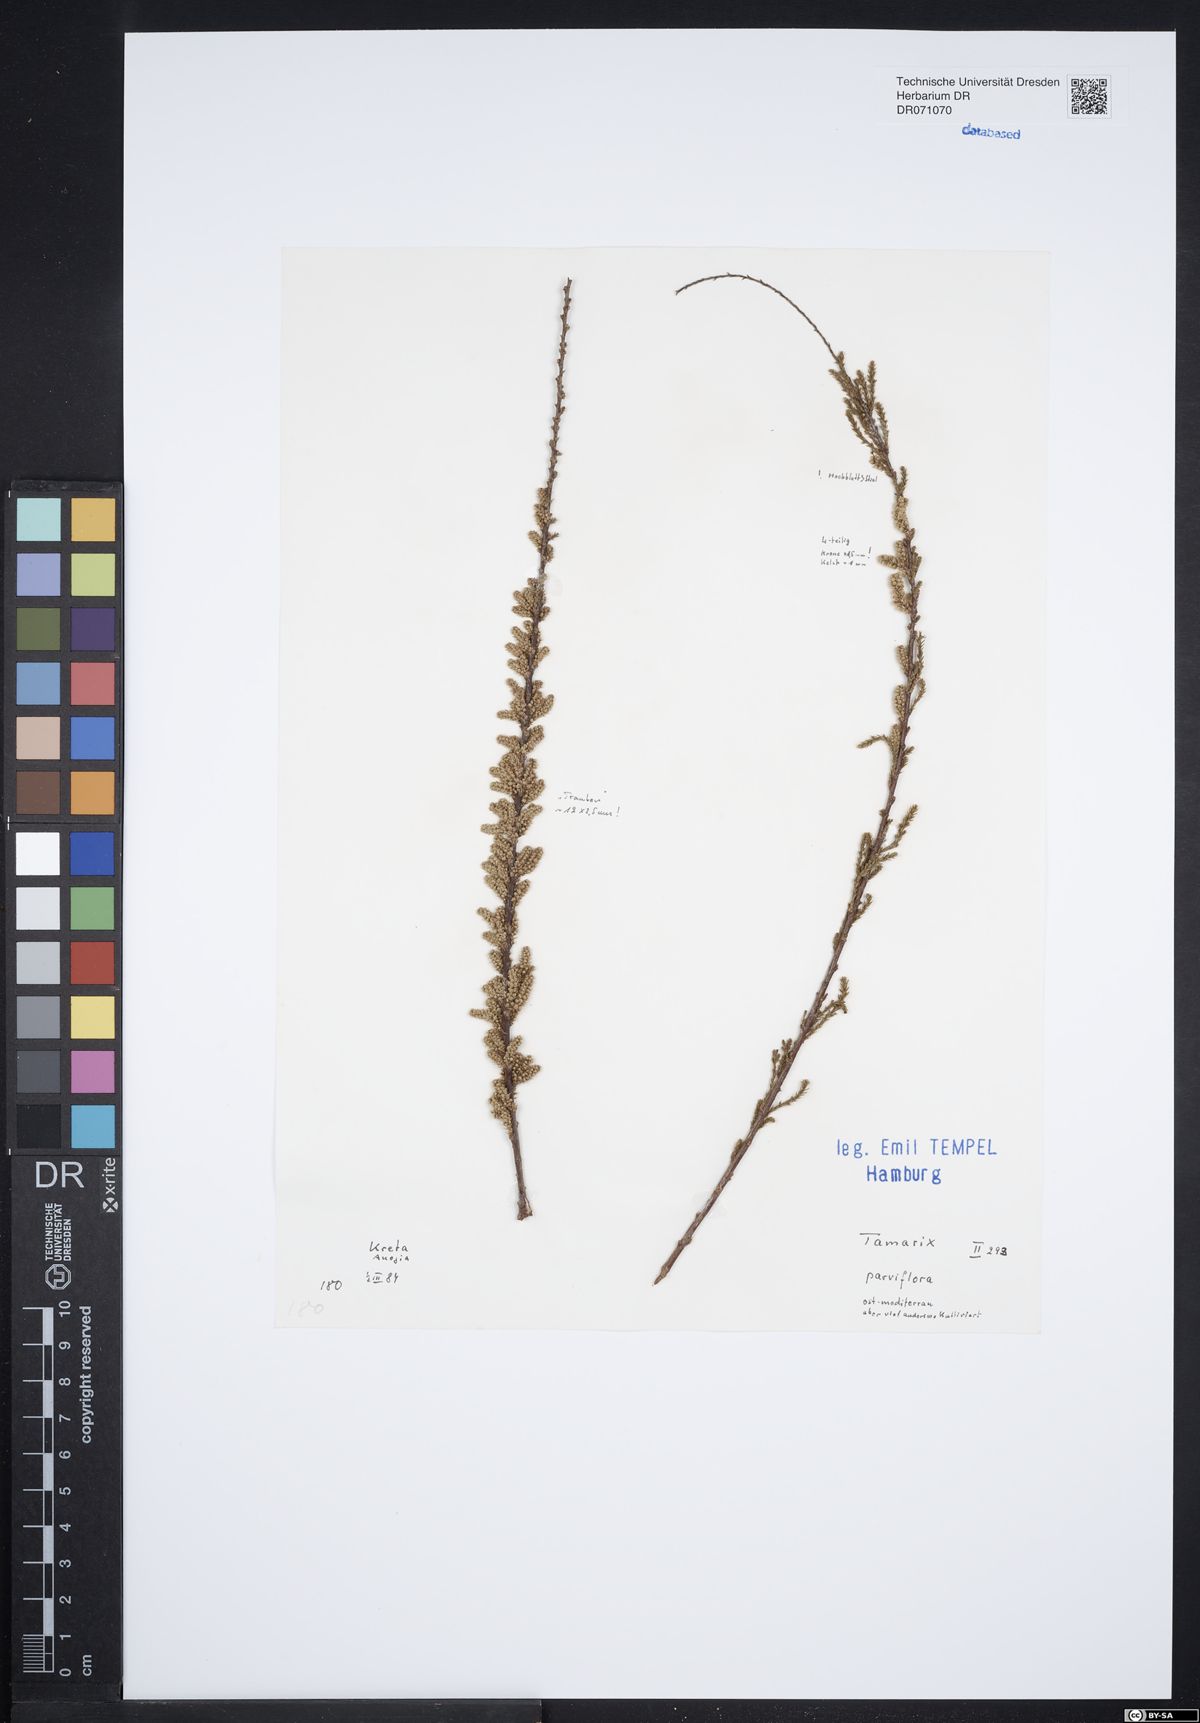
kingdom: Plantae
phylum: Tracheophyta
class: Magnoliopsida
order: Caryophyllales
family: Tamaricaceae
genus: Tamarix
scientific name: Tamarix parviflora
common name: Smallflower tamarisk
